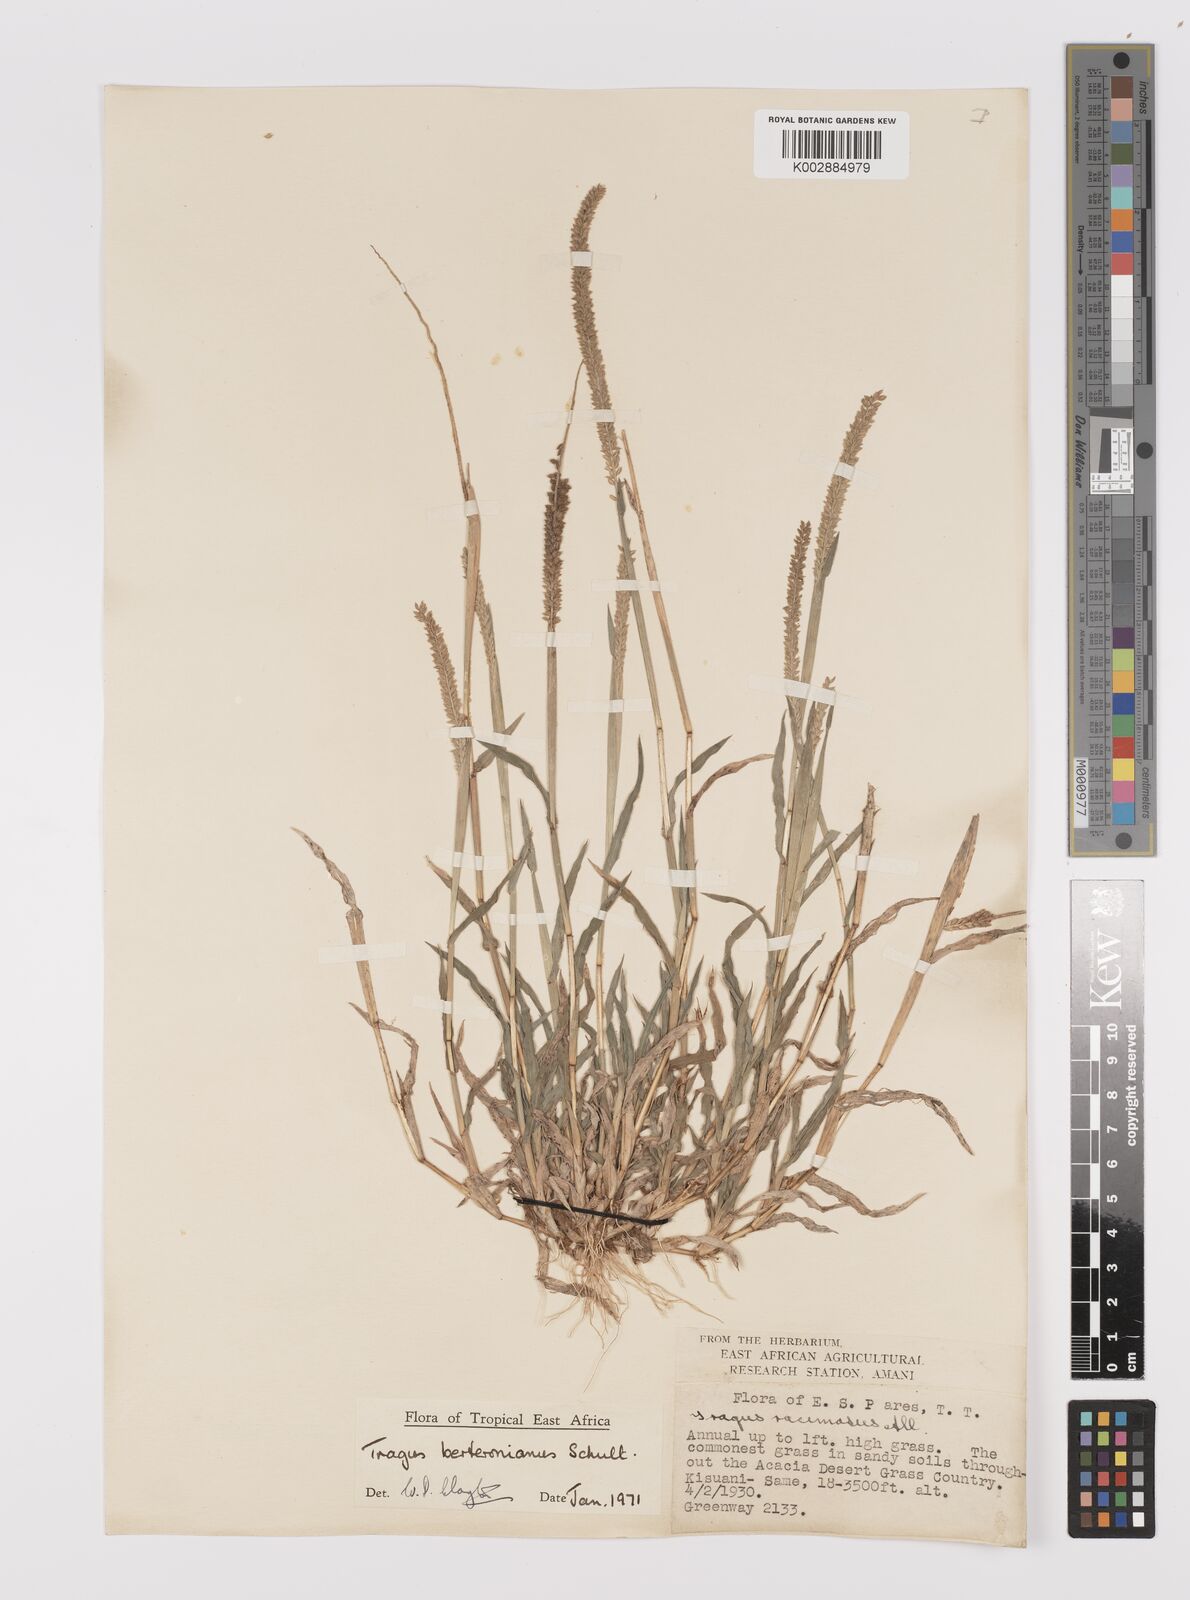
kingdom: Plantae
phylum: Tracheophyta
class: Liliopsida
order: Poales
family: Poaceae
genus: Tragus
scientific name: Tragus berteronianus
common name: African bur-grass
